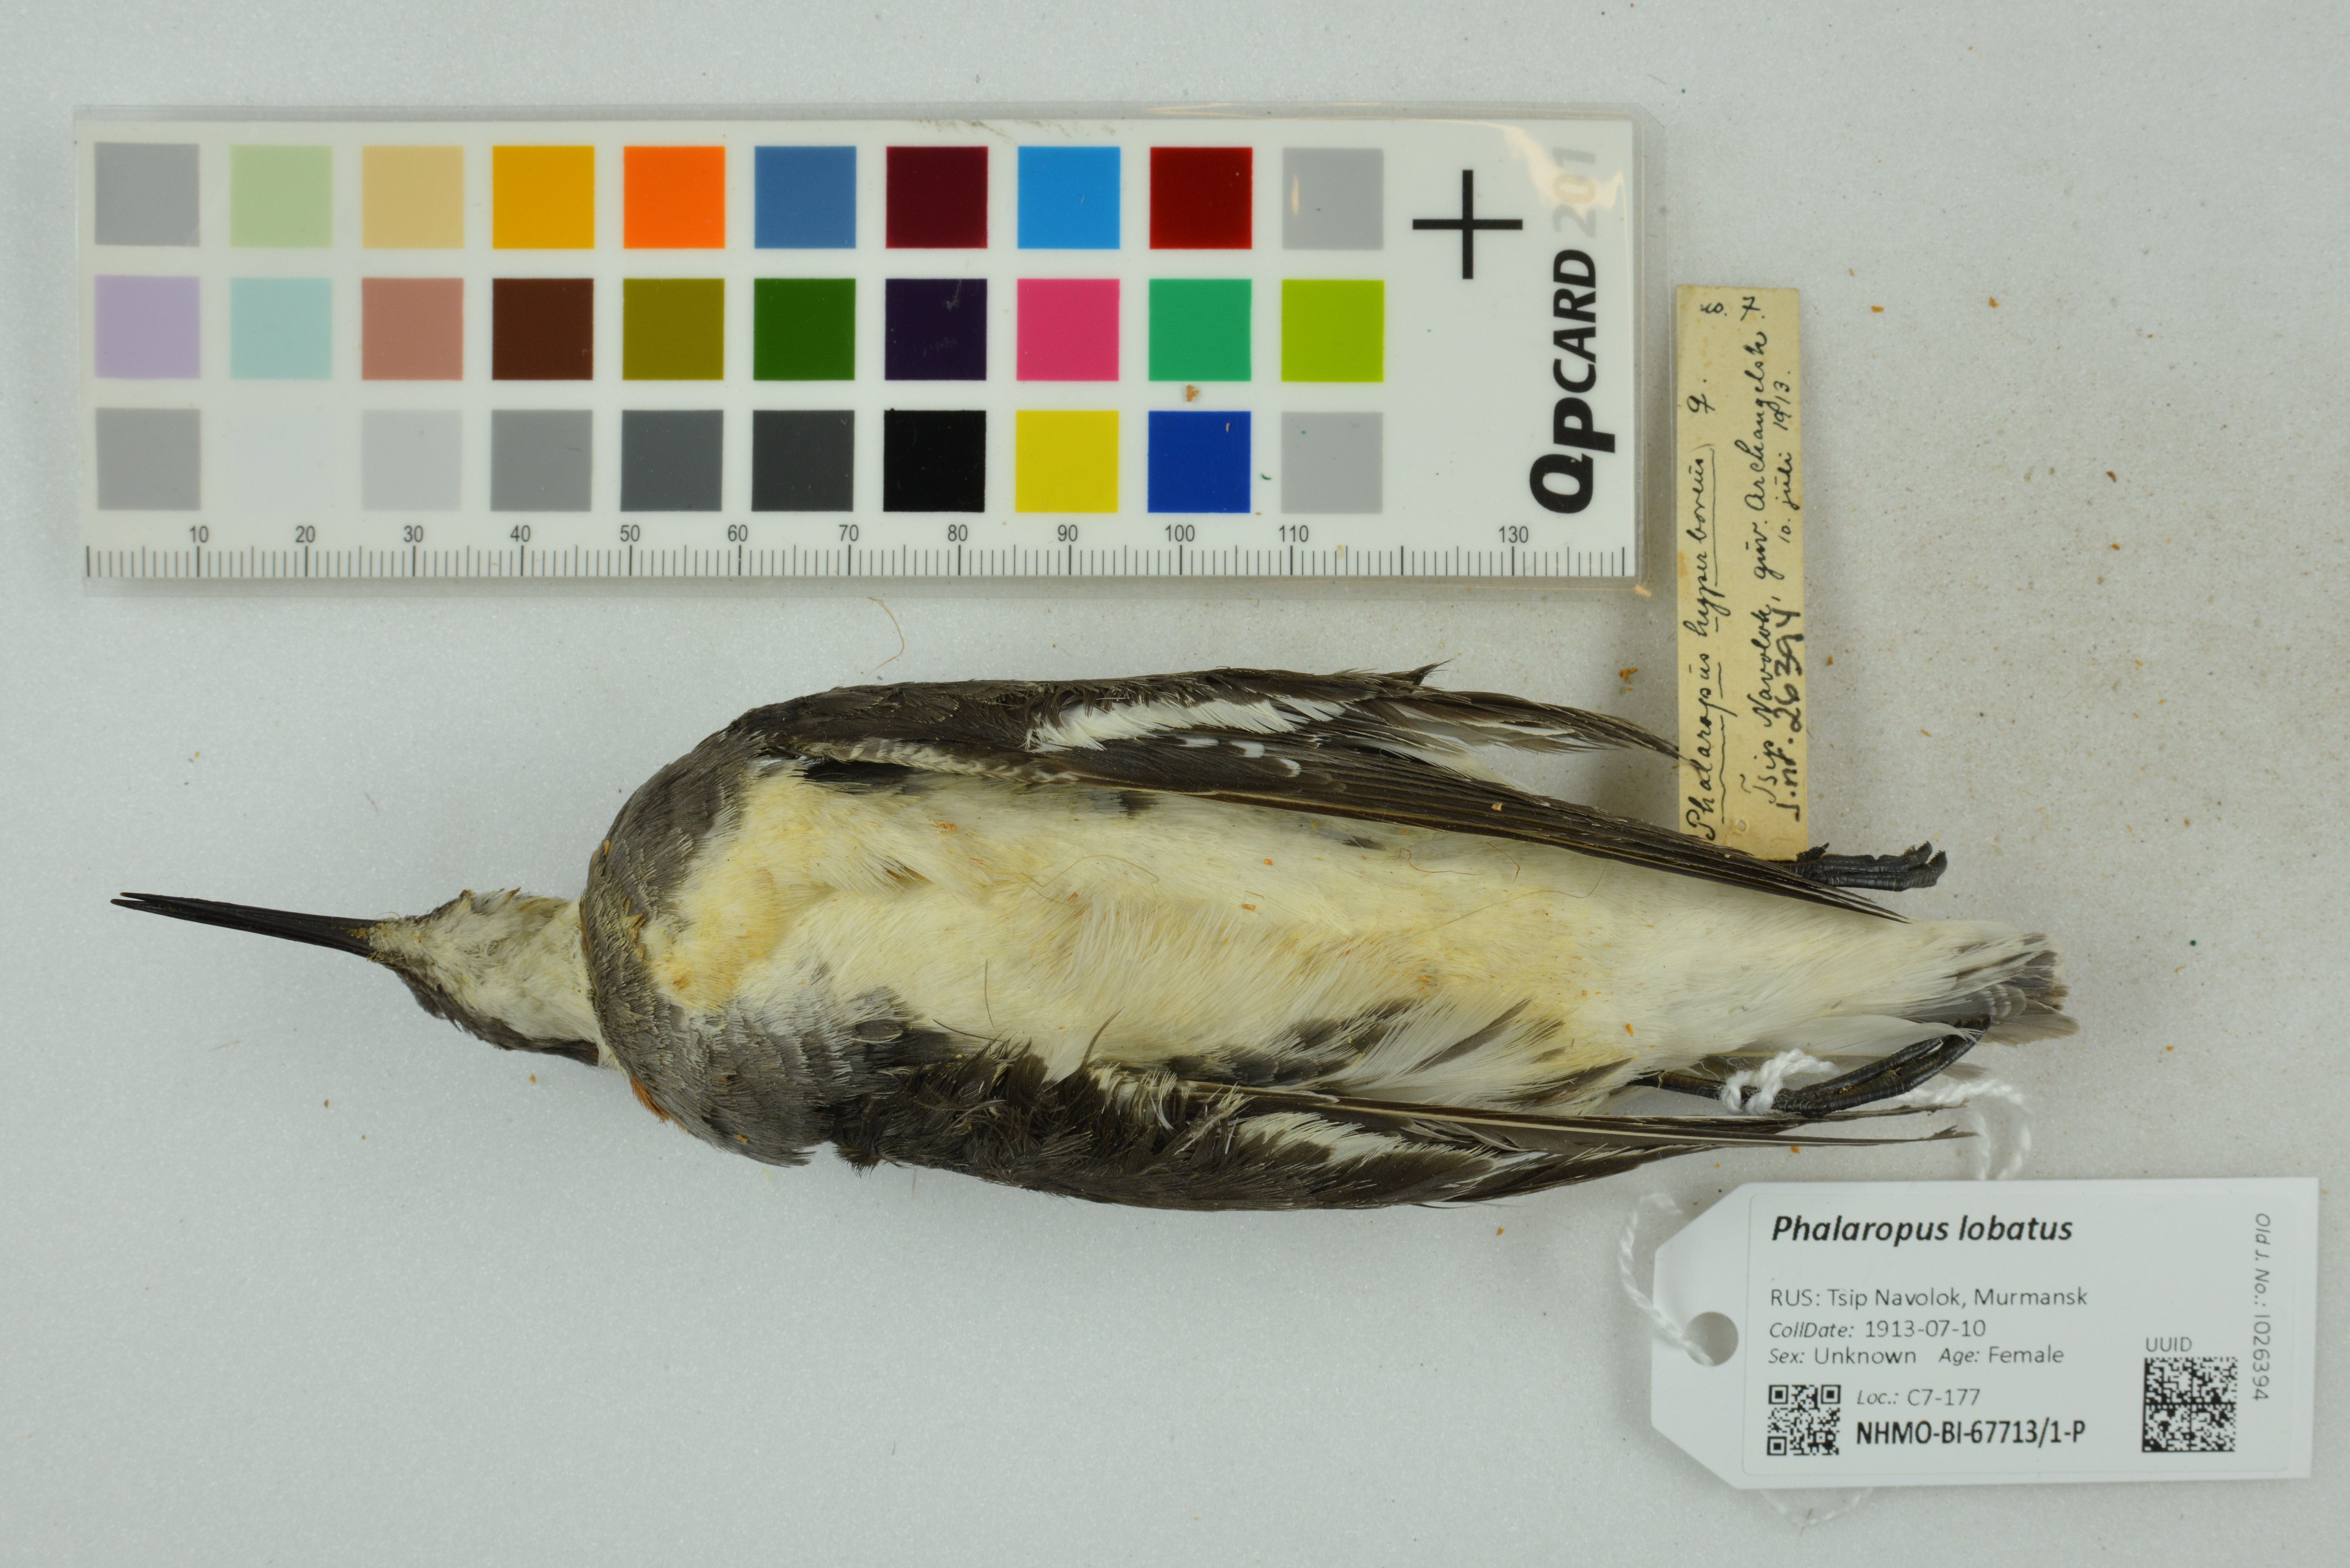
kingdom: Animalia
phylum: Chordata
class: Aves
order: Charadriiformes
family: Scolopacidae
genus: Phalaropus
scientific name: Phalaropus lobatus
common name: Red-necked phalarope
